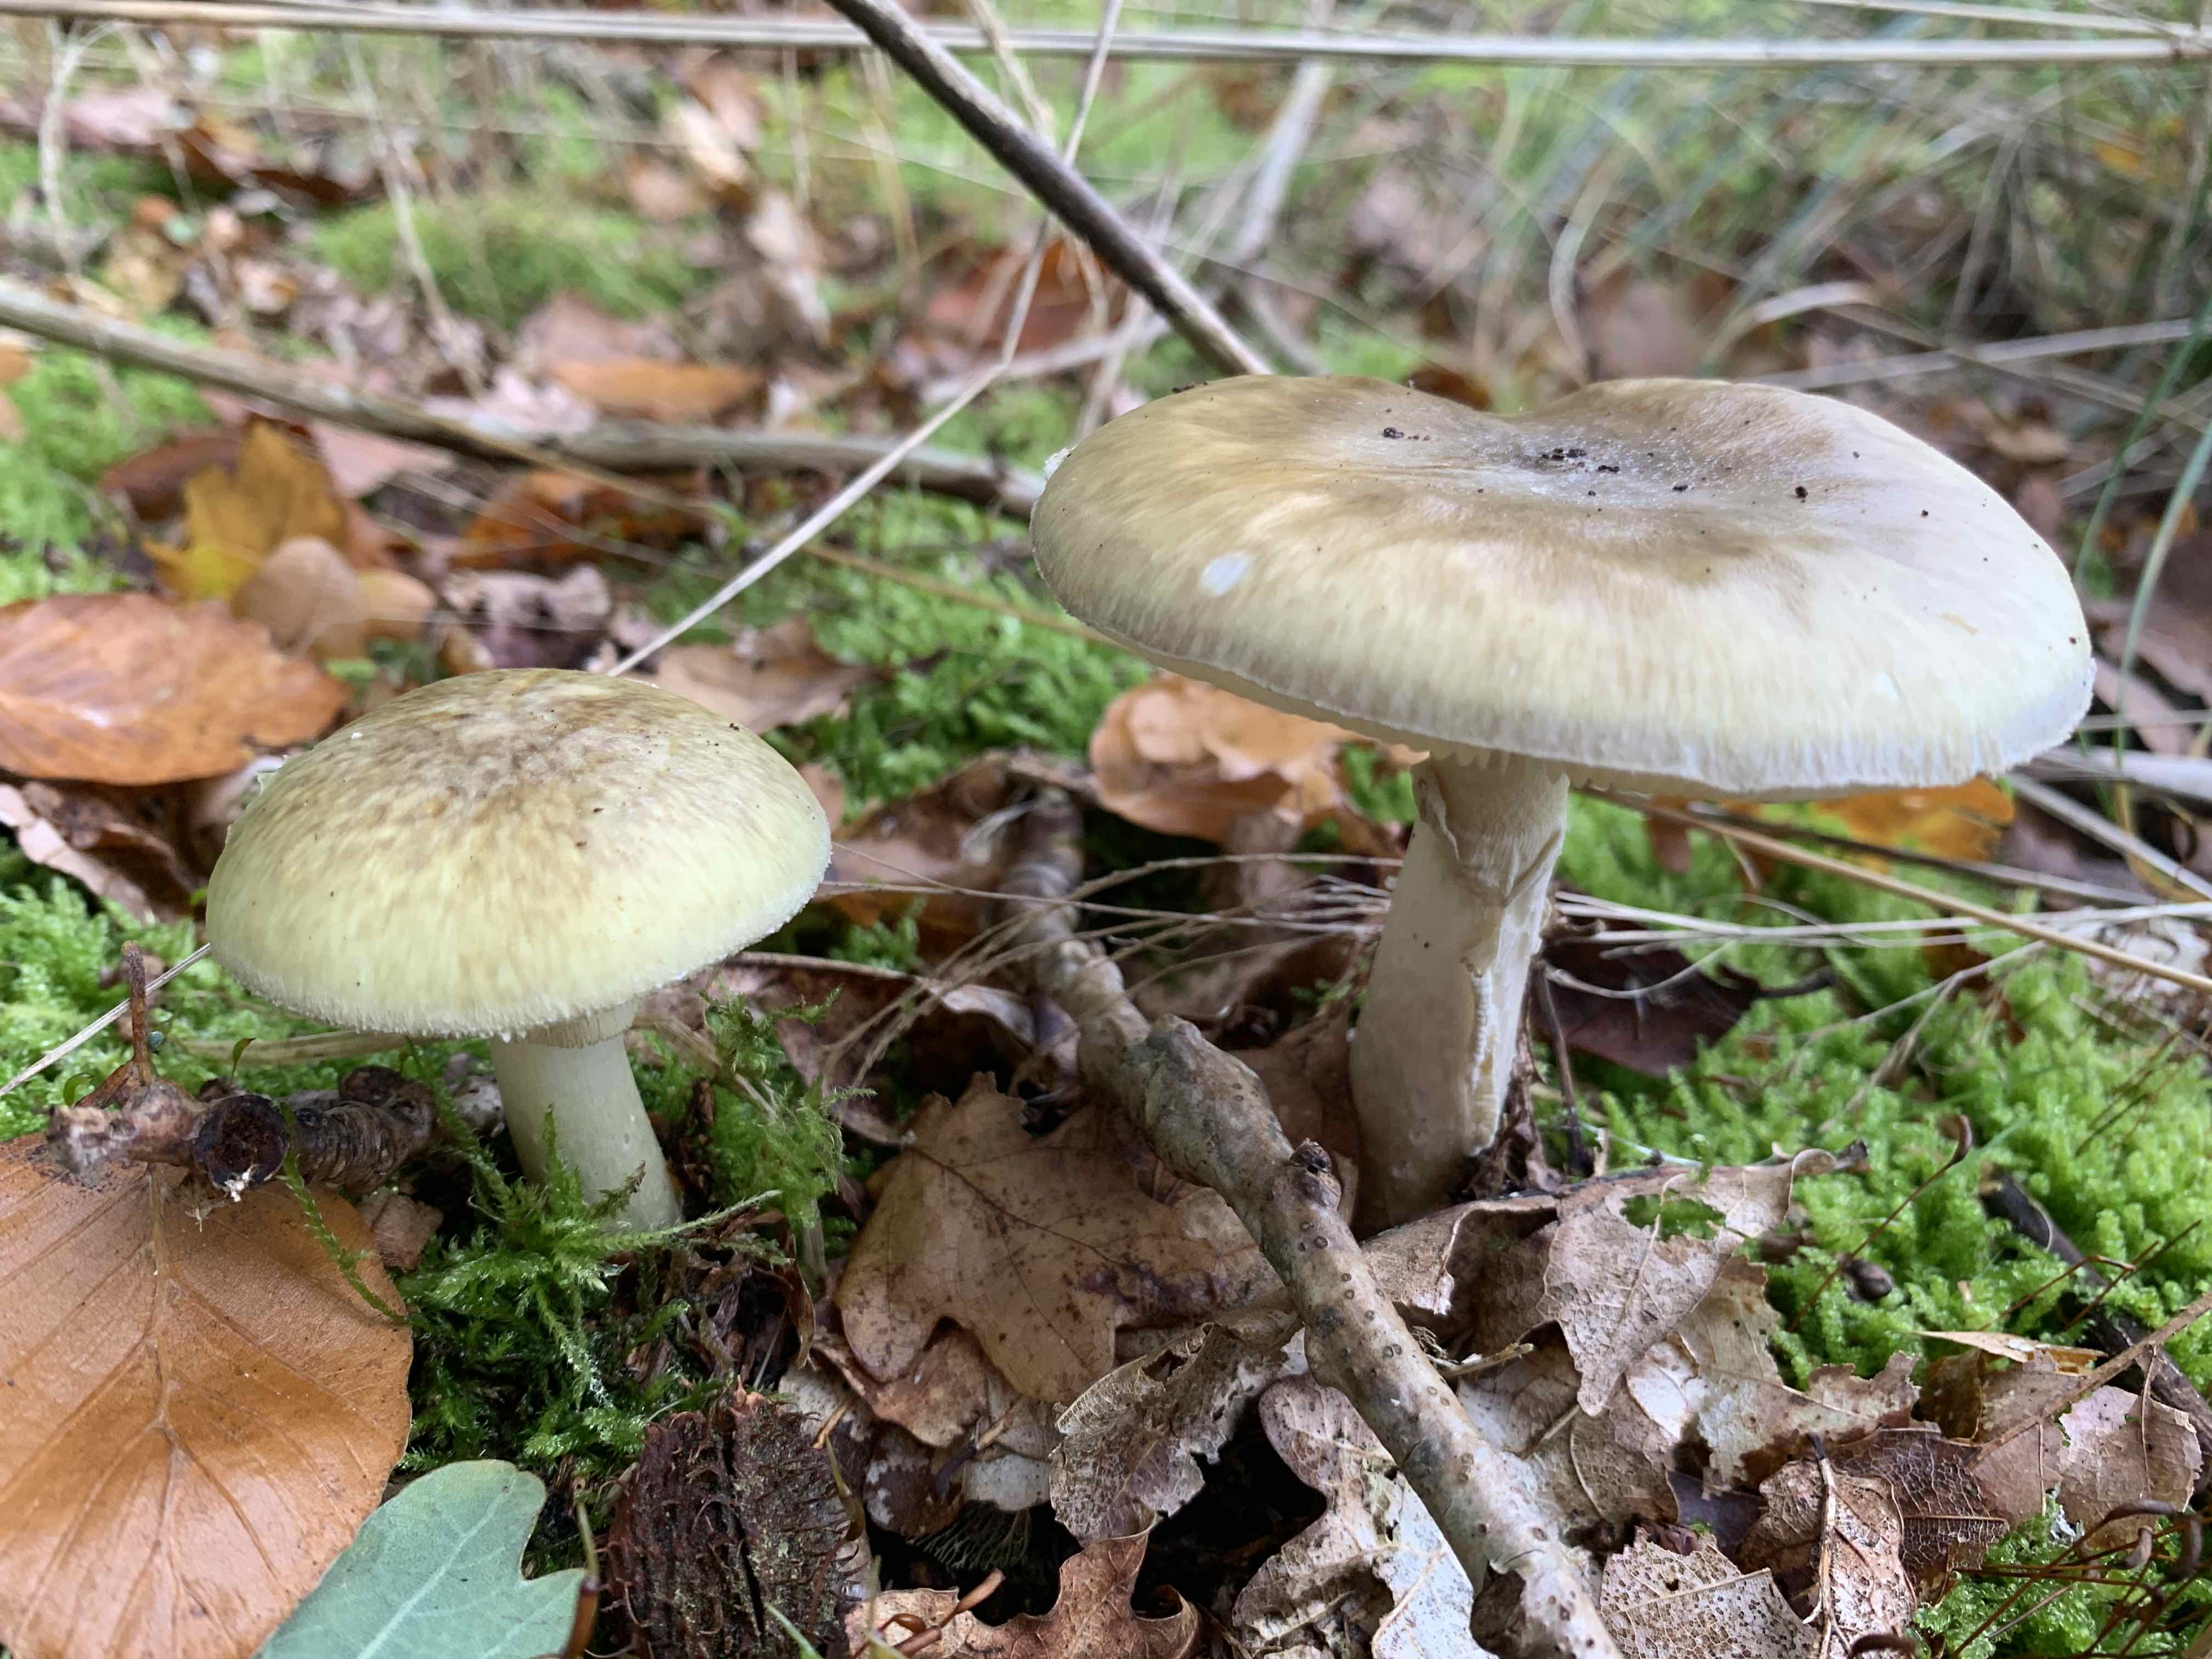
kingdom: Fungi
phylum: Basidiomycota
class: Agaricomycetes
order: Agaricales
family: Amanitaceae
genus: Amanita
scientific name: Amanita phalloides
